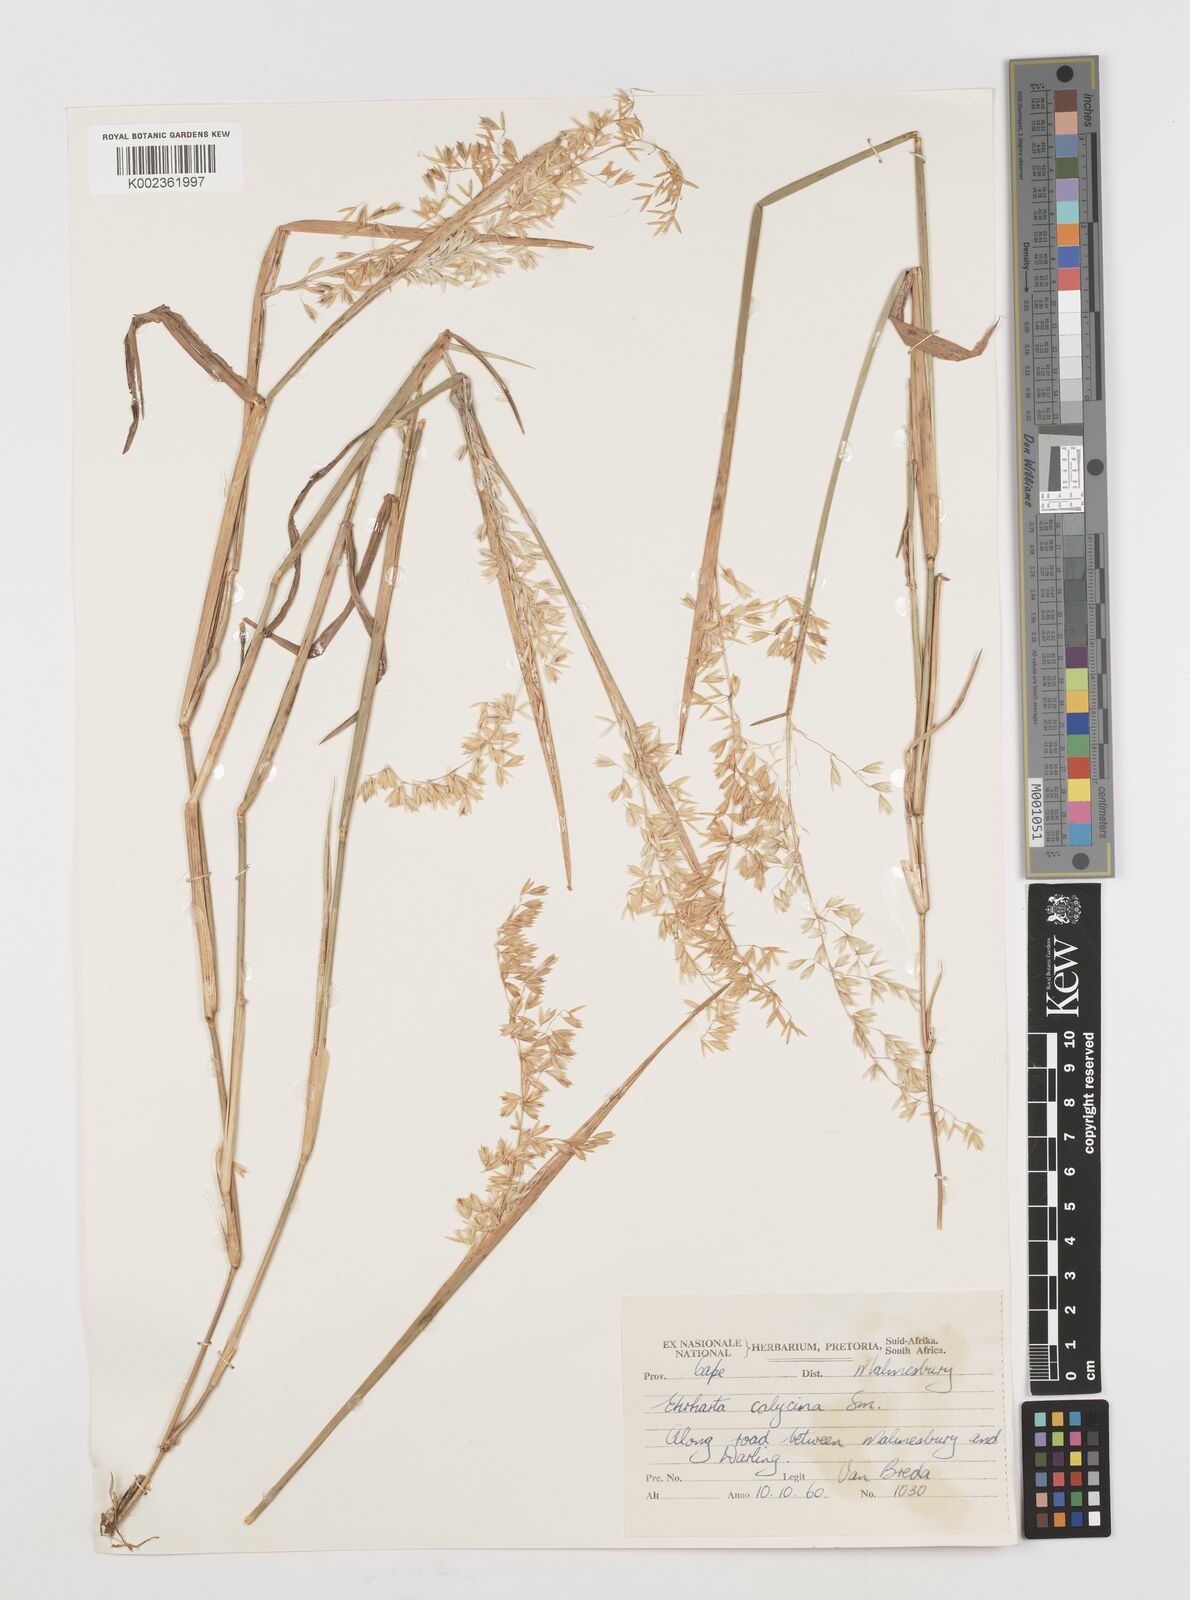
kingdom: Plantae
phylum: Tracheophyta
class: Liliopsida
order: Poales
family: Poaceae
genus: Ehrharta
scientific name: Ehrharta calycina
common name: Perennial veldtgrass
